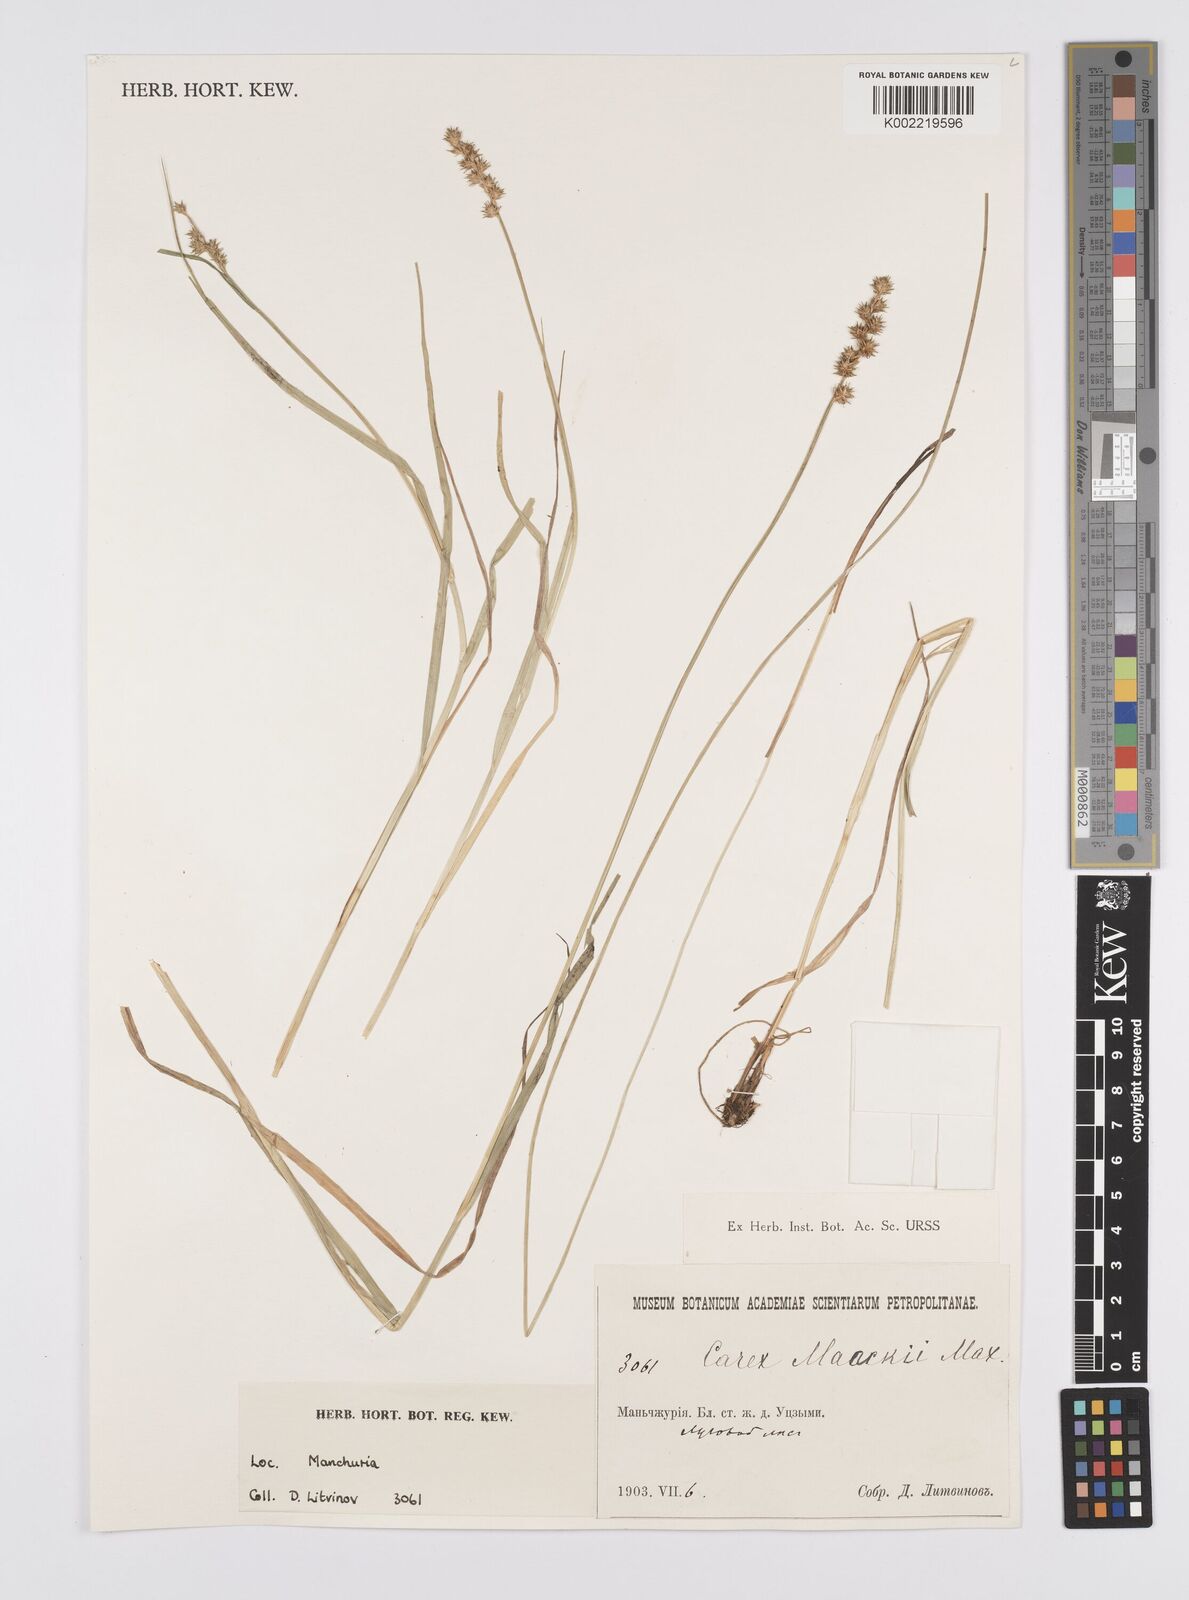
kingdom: Plantae
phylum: Tracheophyta
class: Liliopsida
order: Poales
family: Cyperaceae
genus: Carex
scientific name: Carex maackii
